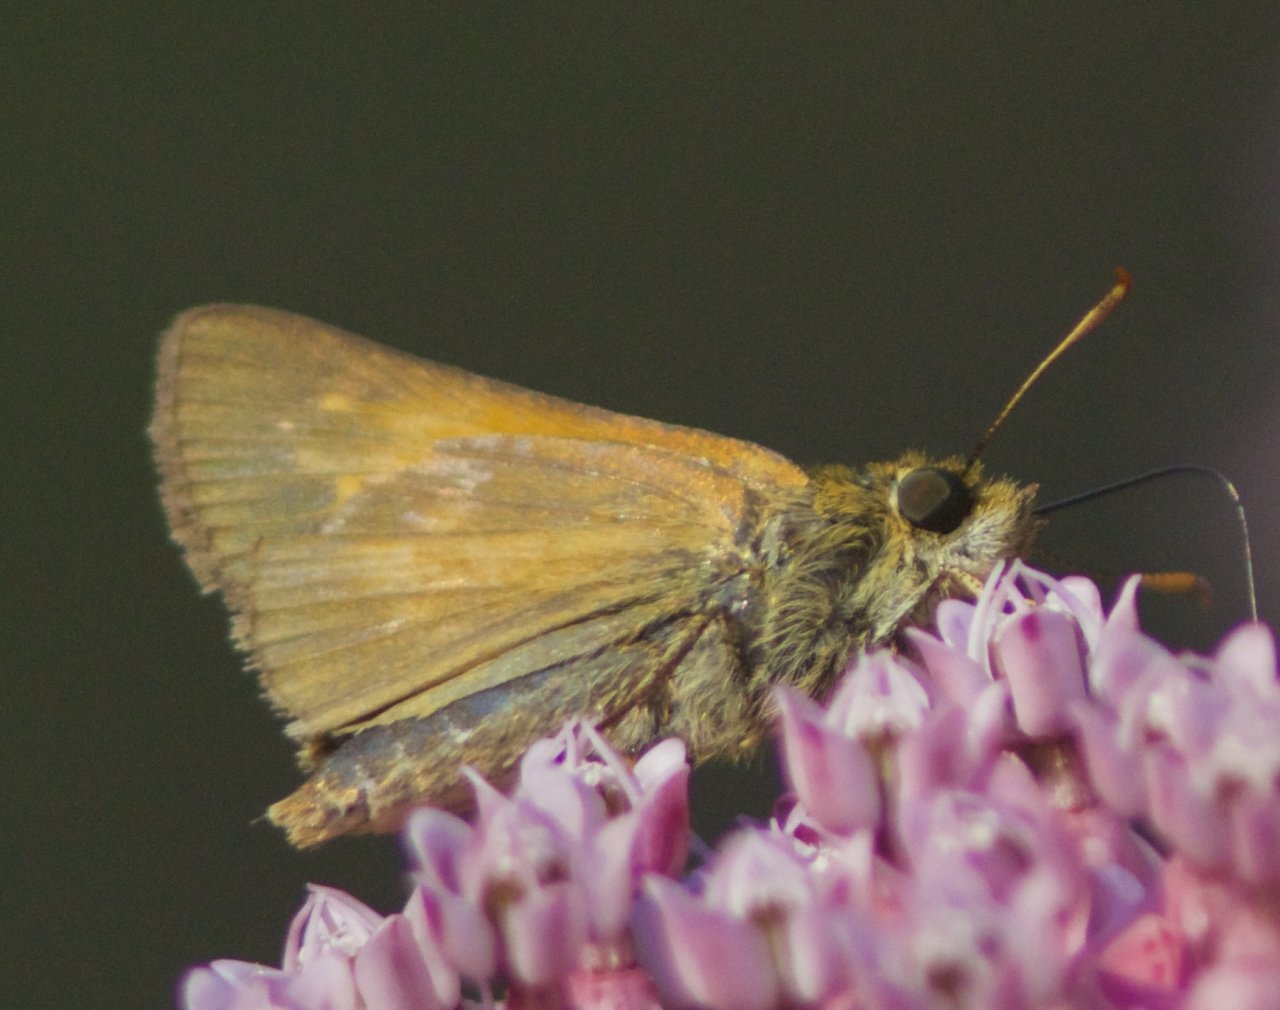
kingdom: Animalia
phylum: Arthropoda
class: Insecta
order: Lepidoptera
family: Hesperiidae
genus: Poanes
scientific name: Poanes viator
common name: Broad-winged Skipper
